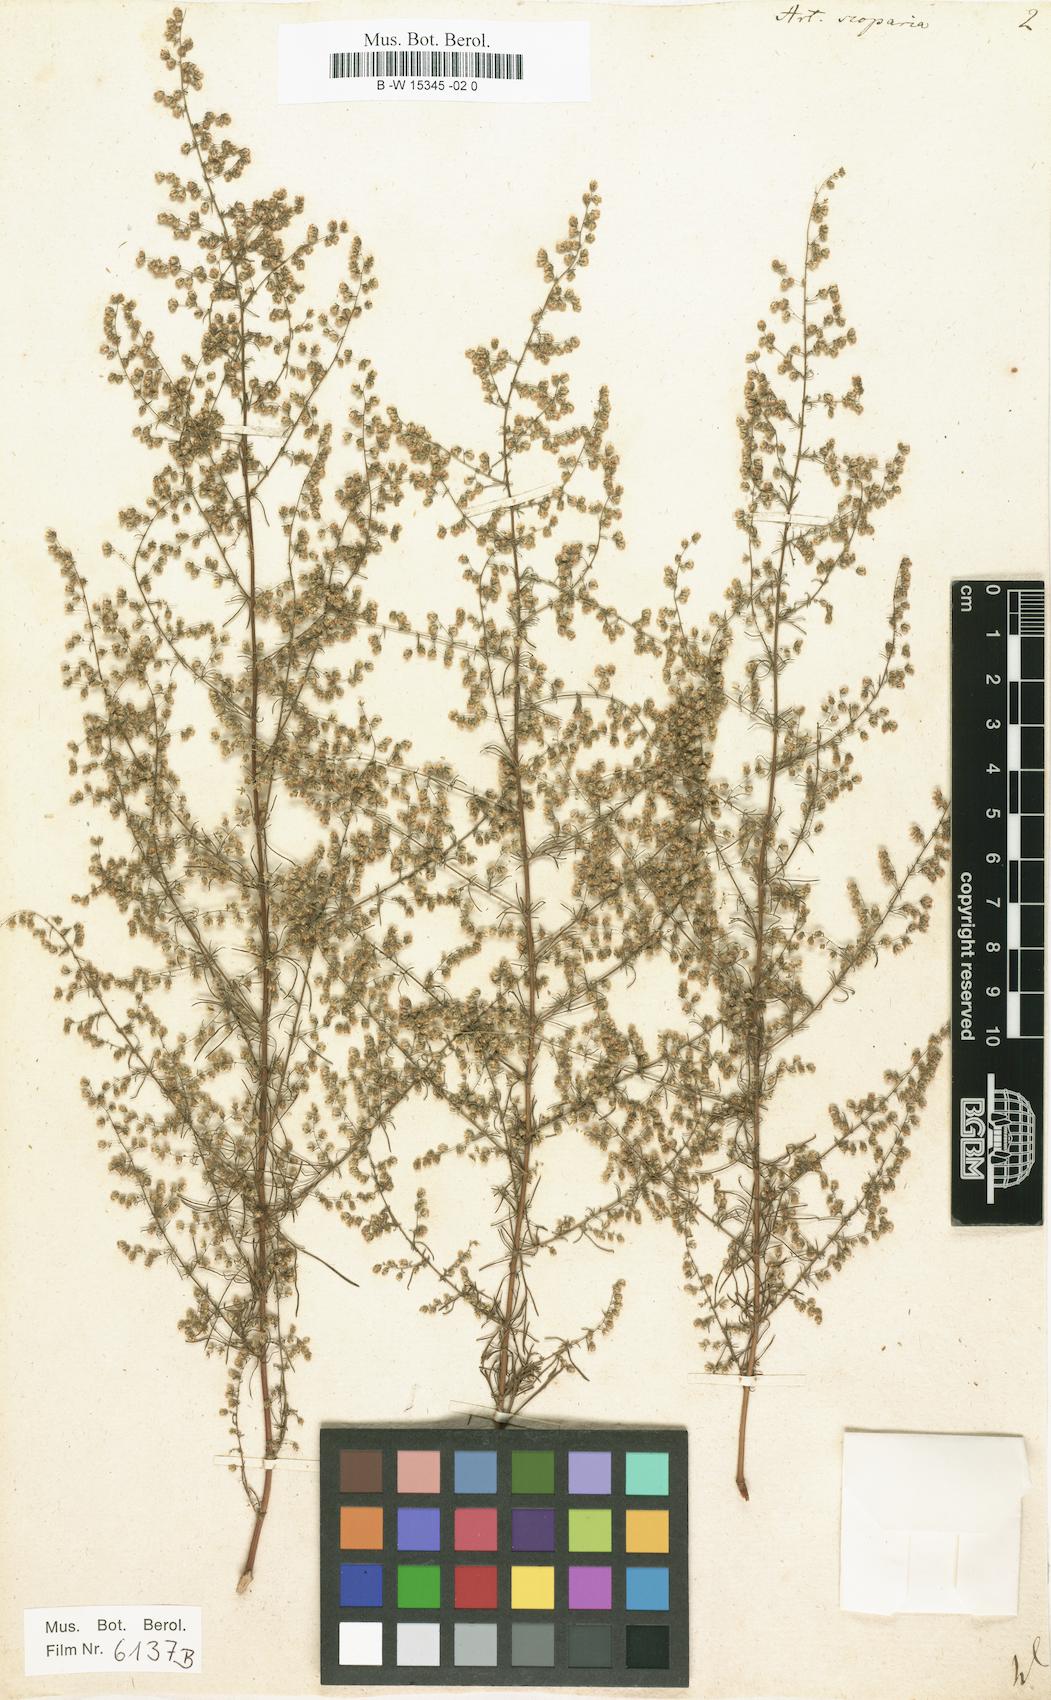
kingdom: Plantae
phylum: Tracheophyta
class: Magnoliopsida
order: Asterales
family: Asteraceae
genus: Artemisia
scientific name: Artemisia scoparia
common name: Redstem wormwood
